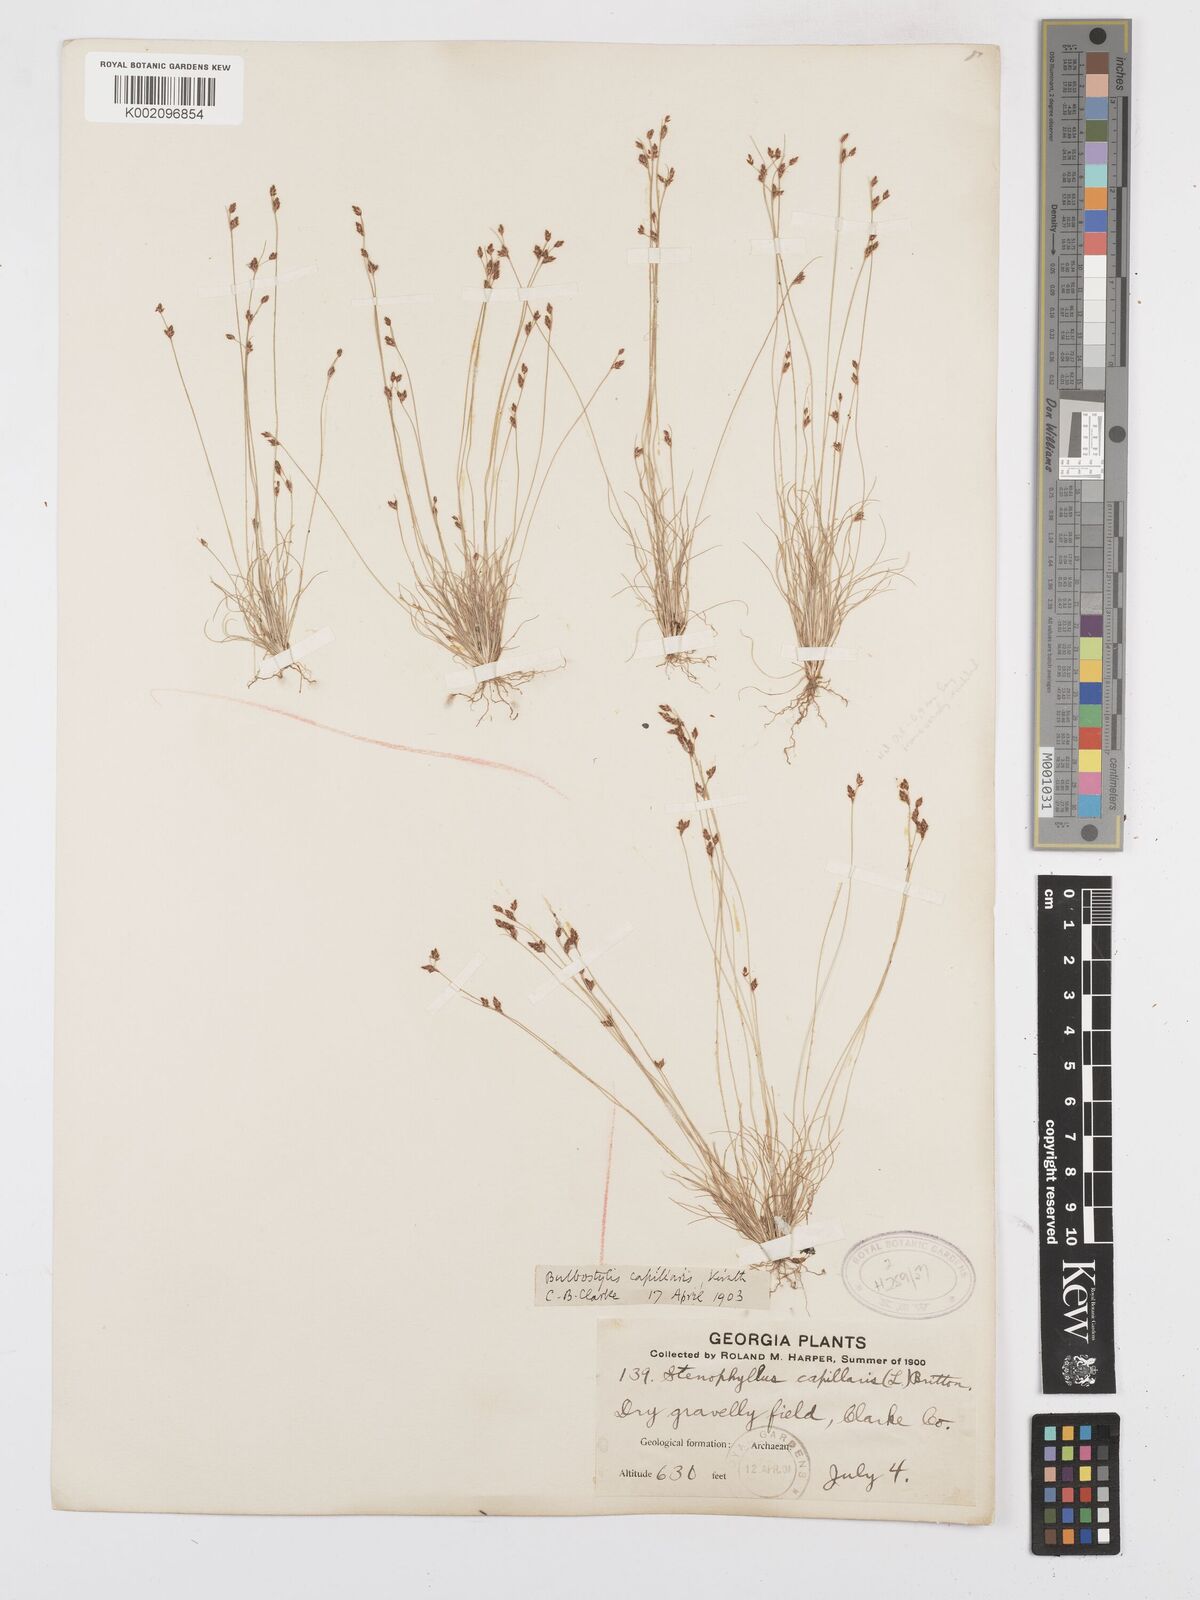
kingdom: Plantae
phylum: Tracheophyta
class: Liliopsida
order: Poales
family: Cyperaceae
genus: Bulbostylis
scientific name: Bulbostylis capillaris
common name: Densetuft hairsedge
